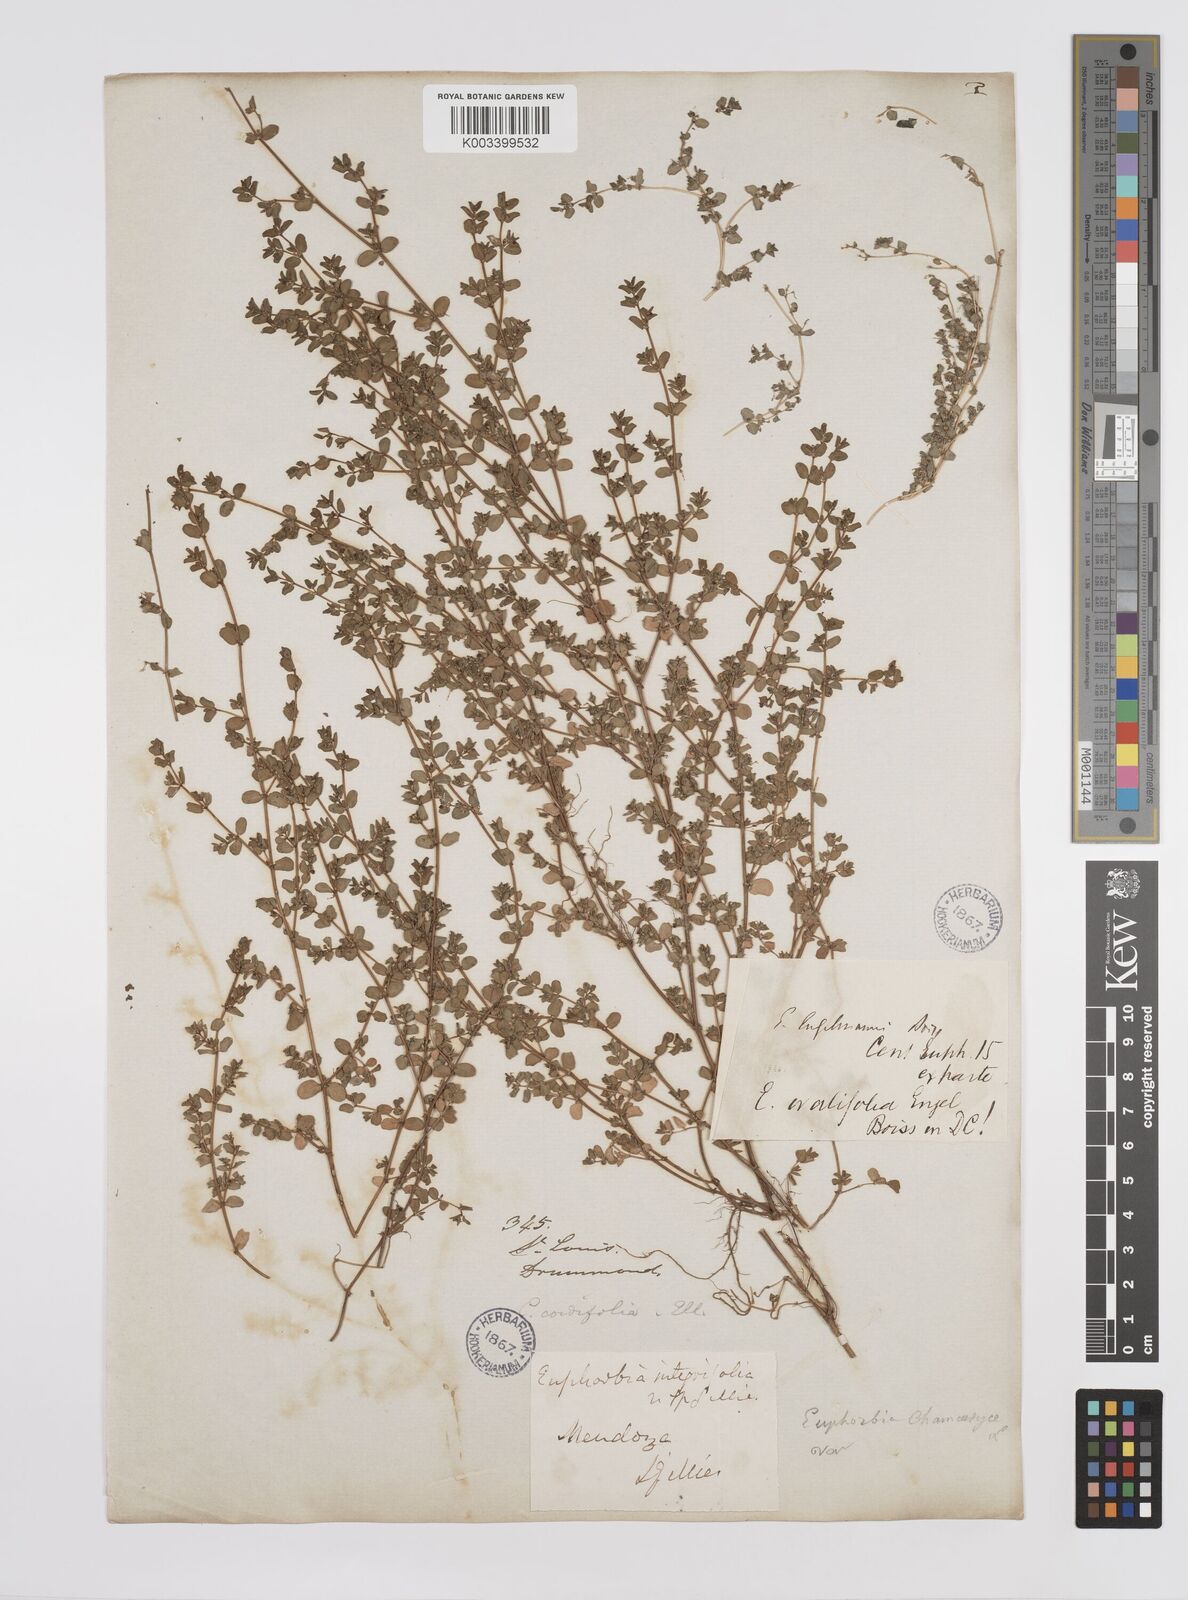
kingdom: Plantae
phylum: Tracheophyta
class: Magnoliopsida
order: Malpighiales
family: Euphorbiaceae
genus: Euphorbia
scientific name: Euphorbia
